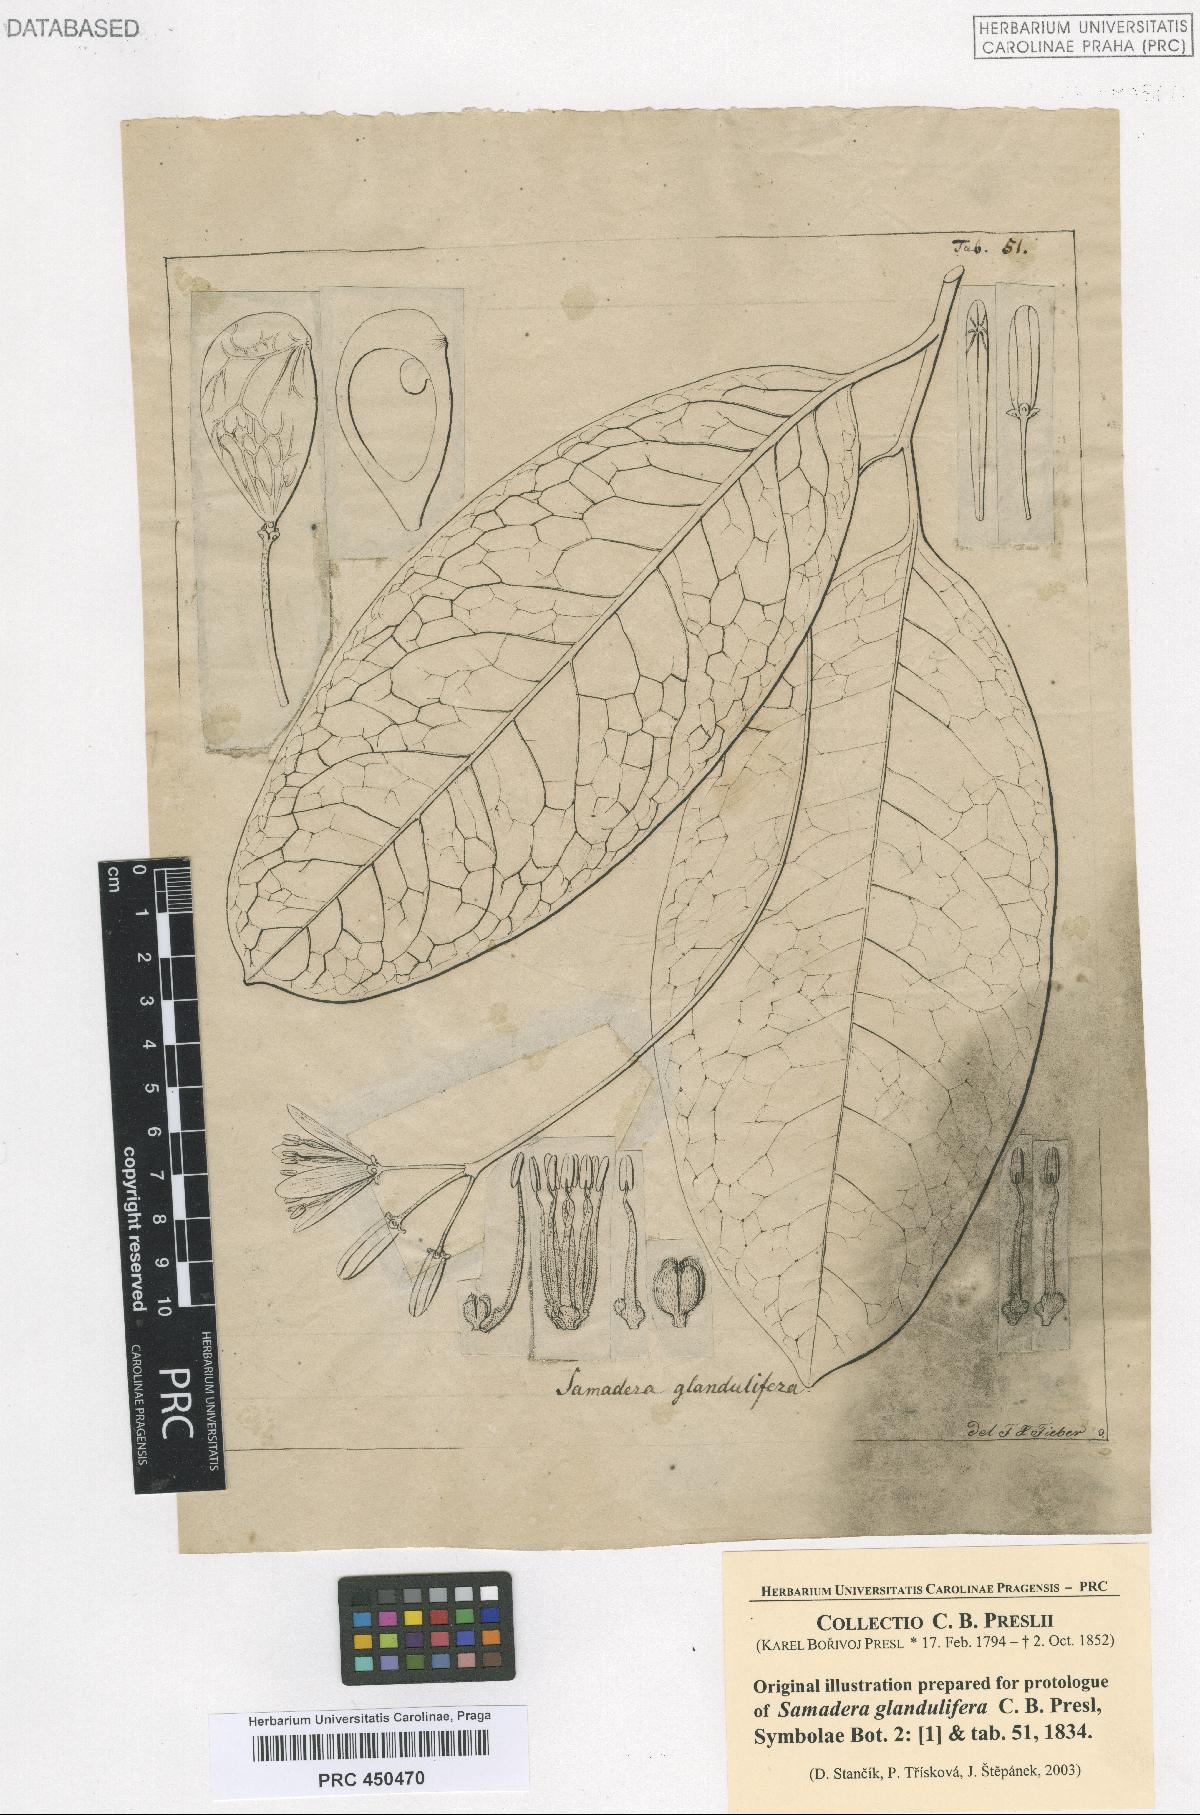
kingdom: Plantae
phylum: Tracheophyta
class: Magnoliopsida
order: Sapindales
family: Simaroubaceae
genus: Samadera
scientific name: Samadera indica
